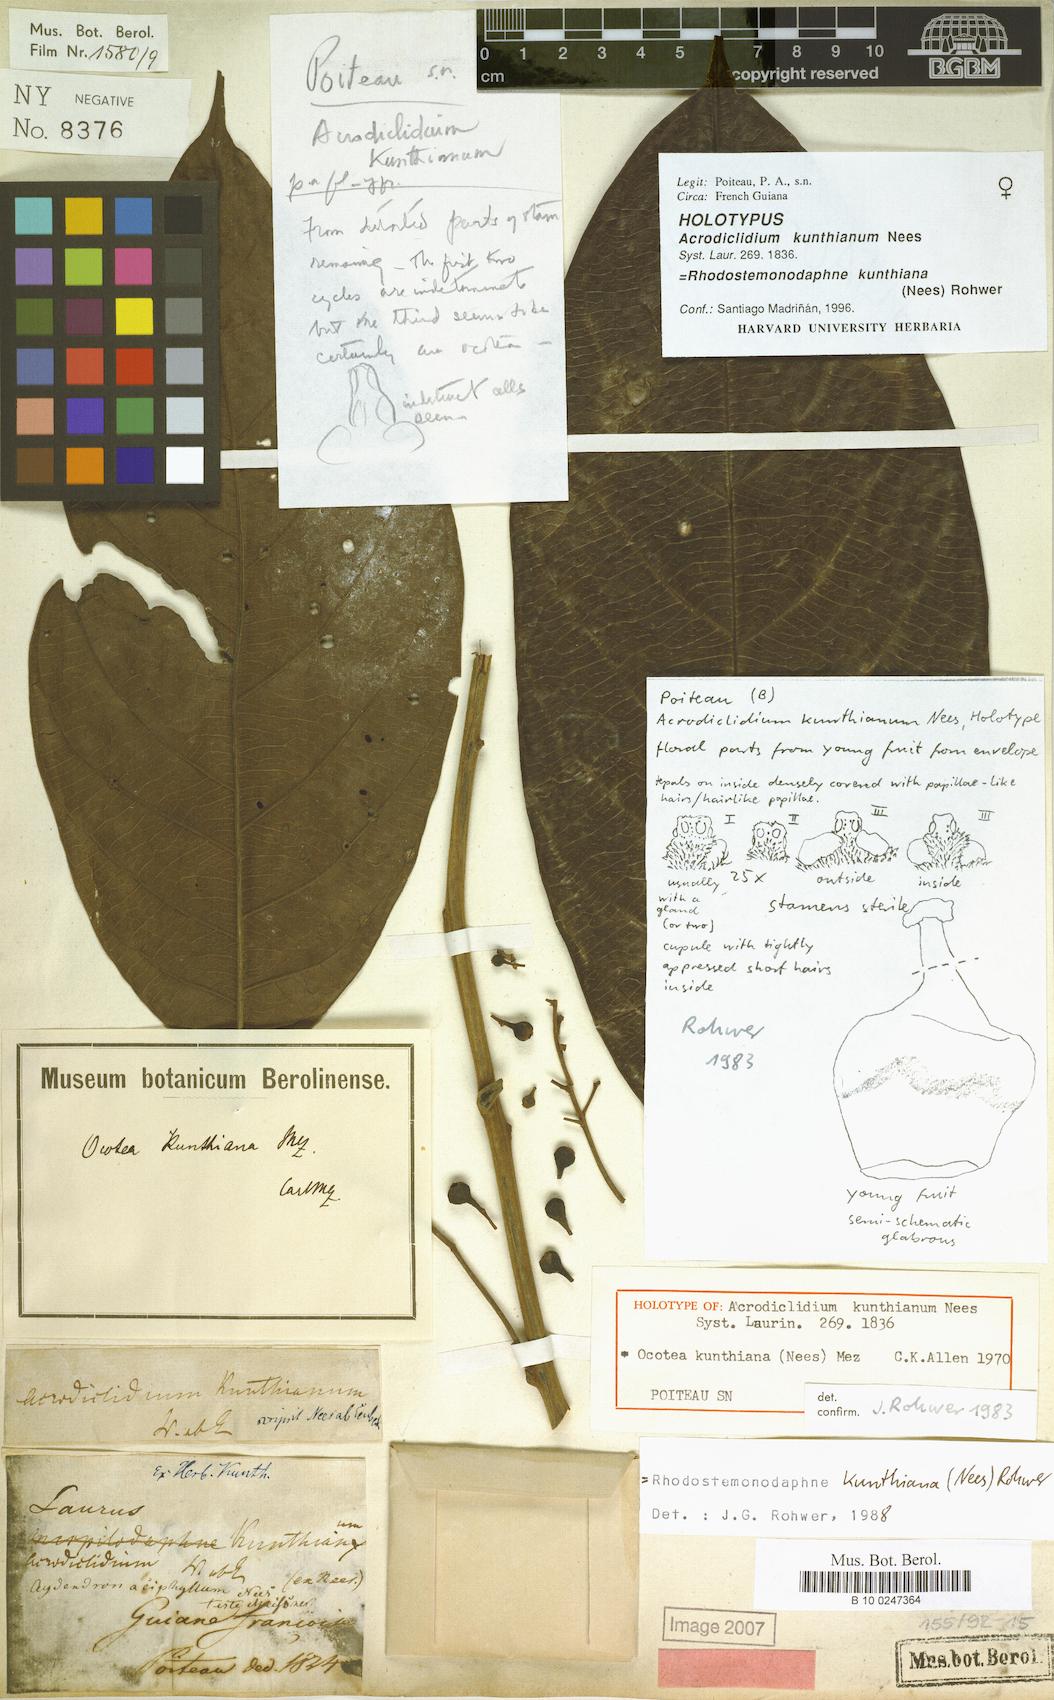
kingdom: Plantae
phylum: Tracheophyta
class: Magnoliopsida
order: Laurales
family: Lauraceae
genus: Rhodostemonodaphne
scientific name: Rhodostemonodaphne kunthiana
